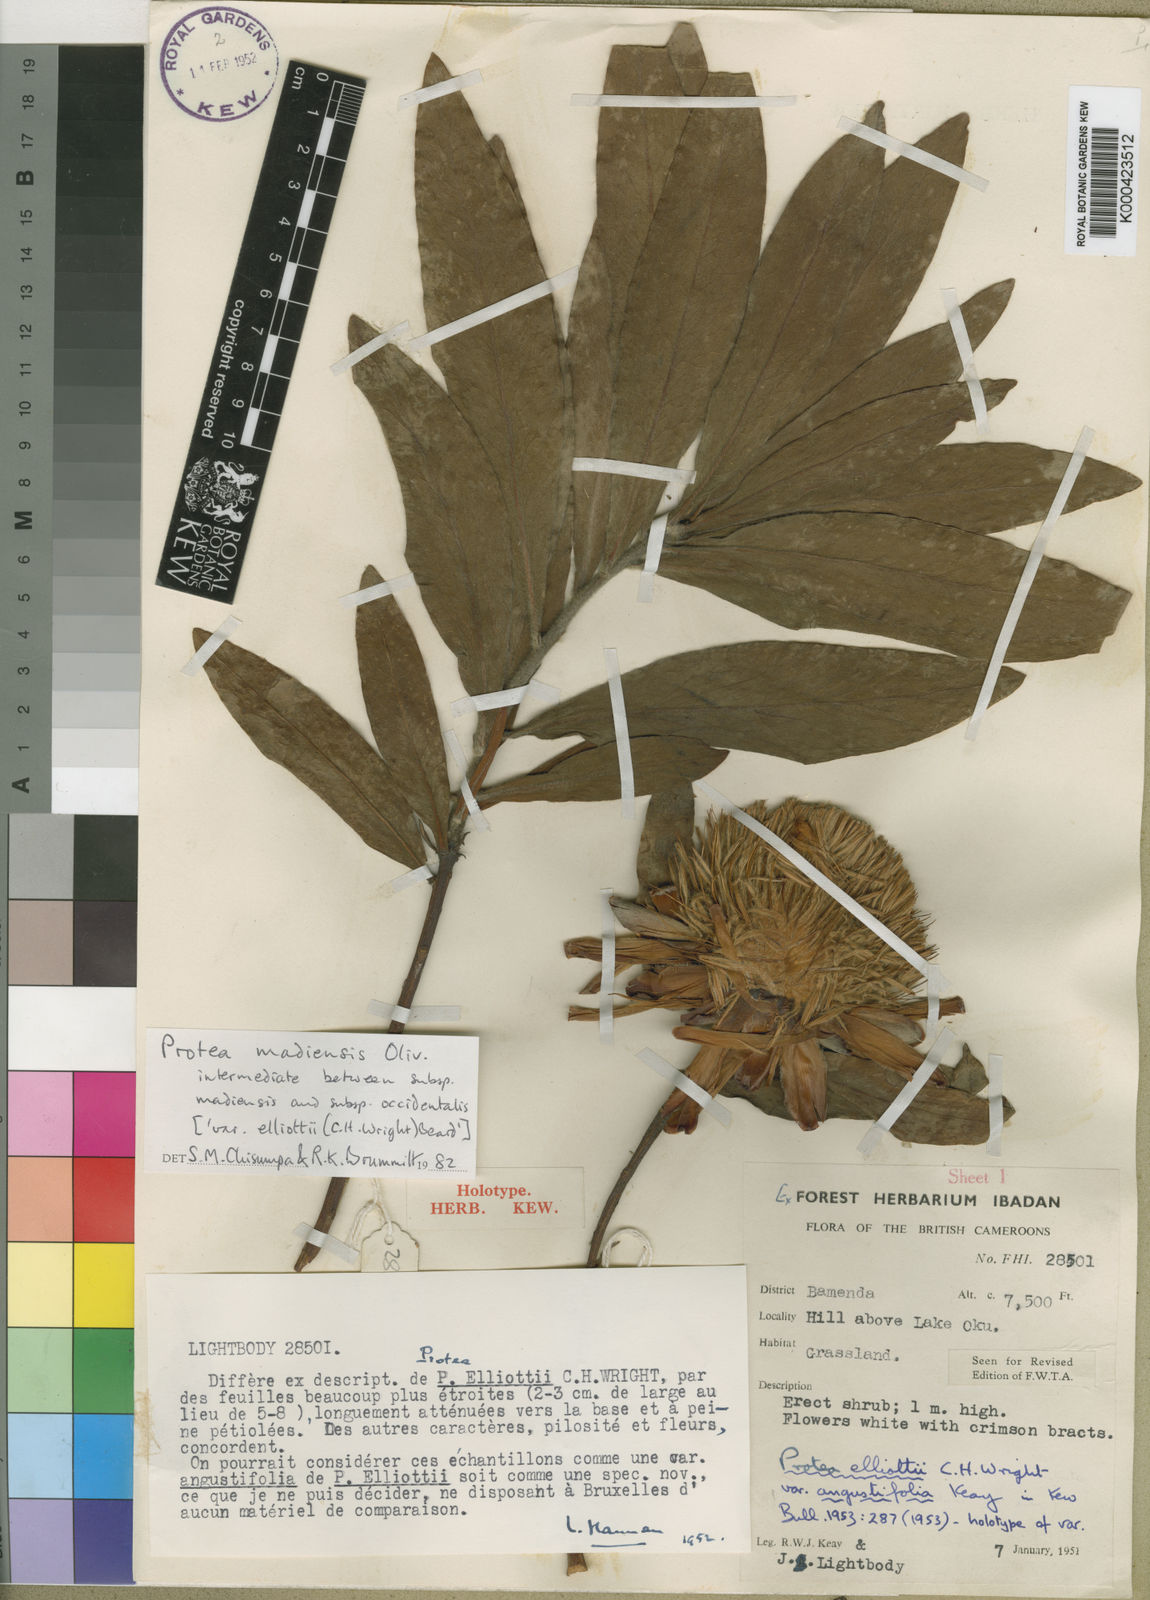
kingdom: Plantae
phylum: Tracheophyta
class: Magnoliopsida
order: Proteales
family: Proteaceae
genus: Protea
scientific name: Protea madiensis
